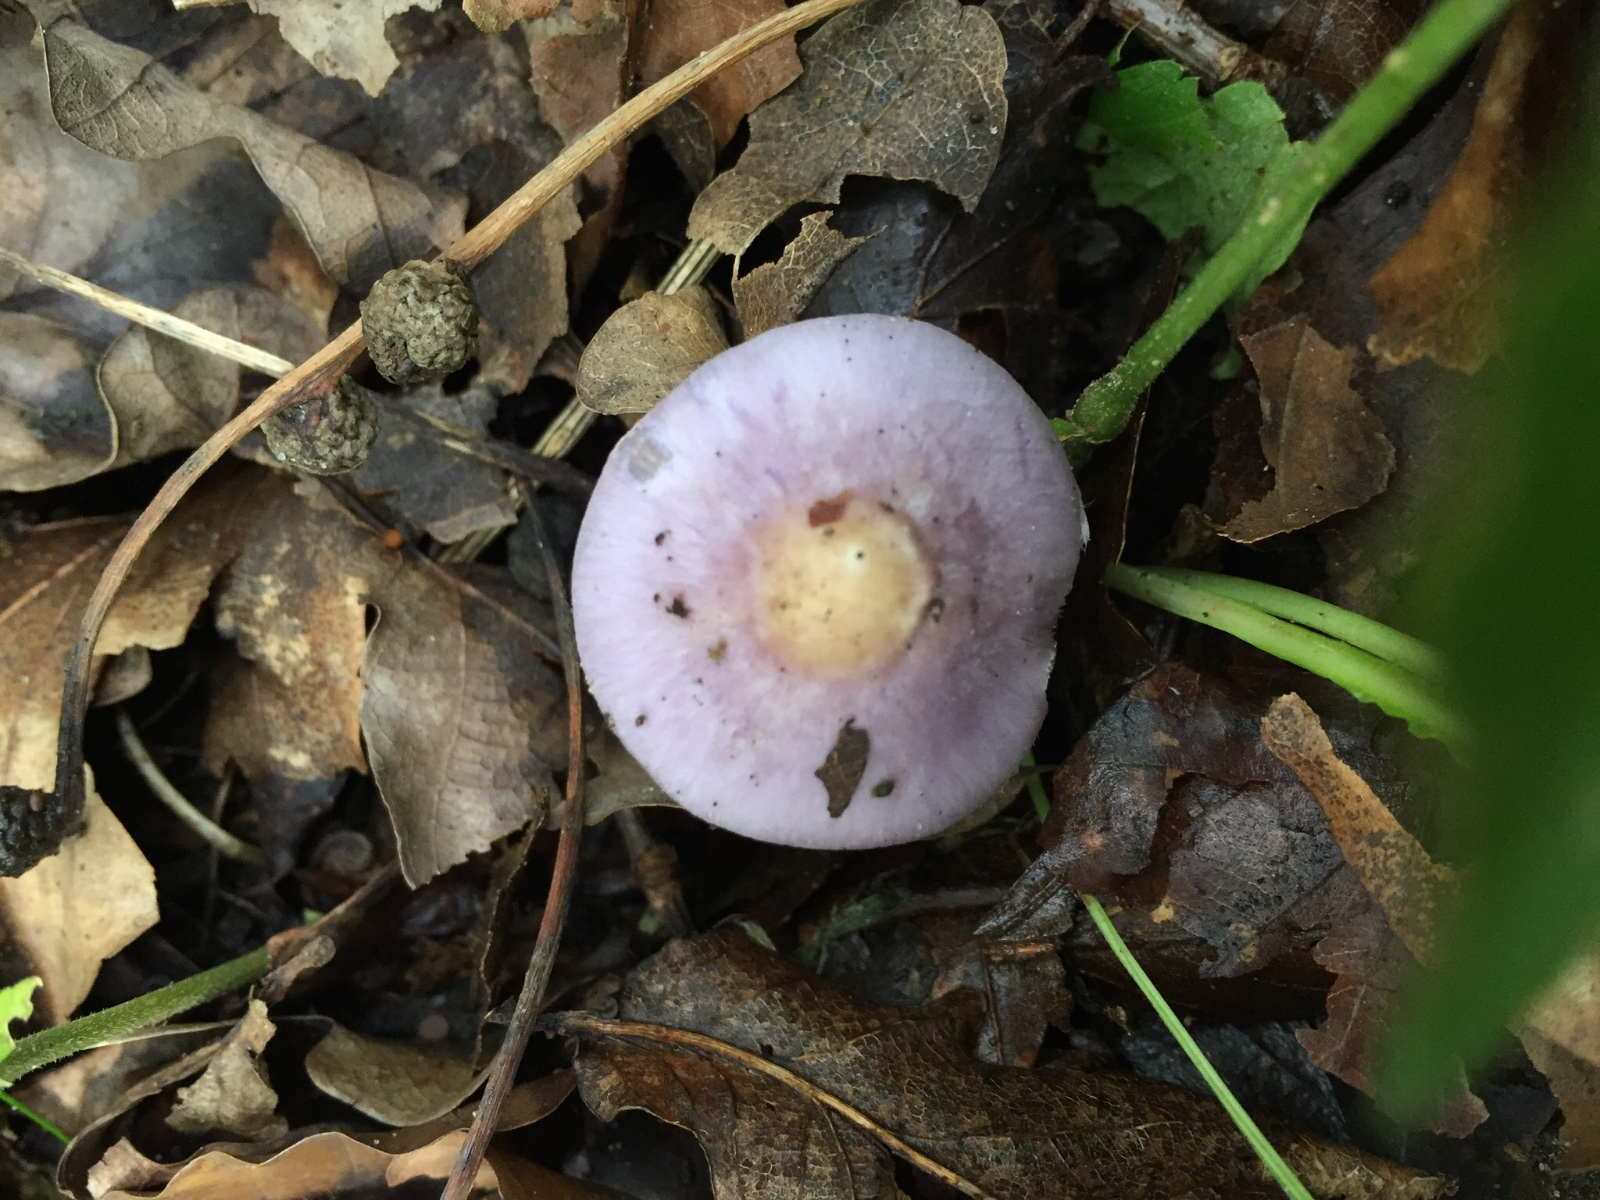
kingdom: Fungi
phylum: Basidiomycota
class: Agaricomycetes
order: Agaricales
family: Inocybaceae
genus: Inocybe
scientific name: Inocybe geophylla
